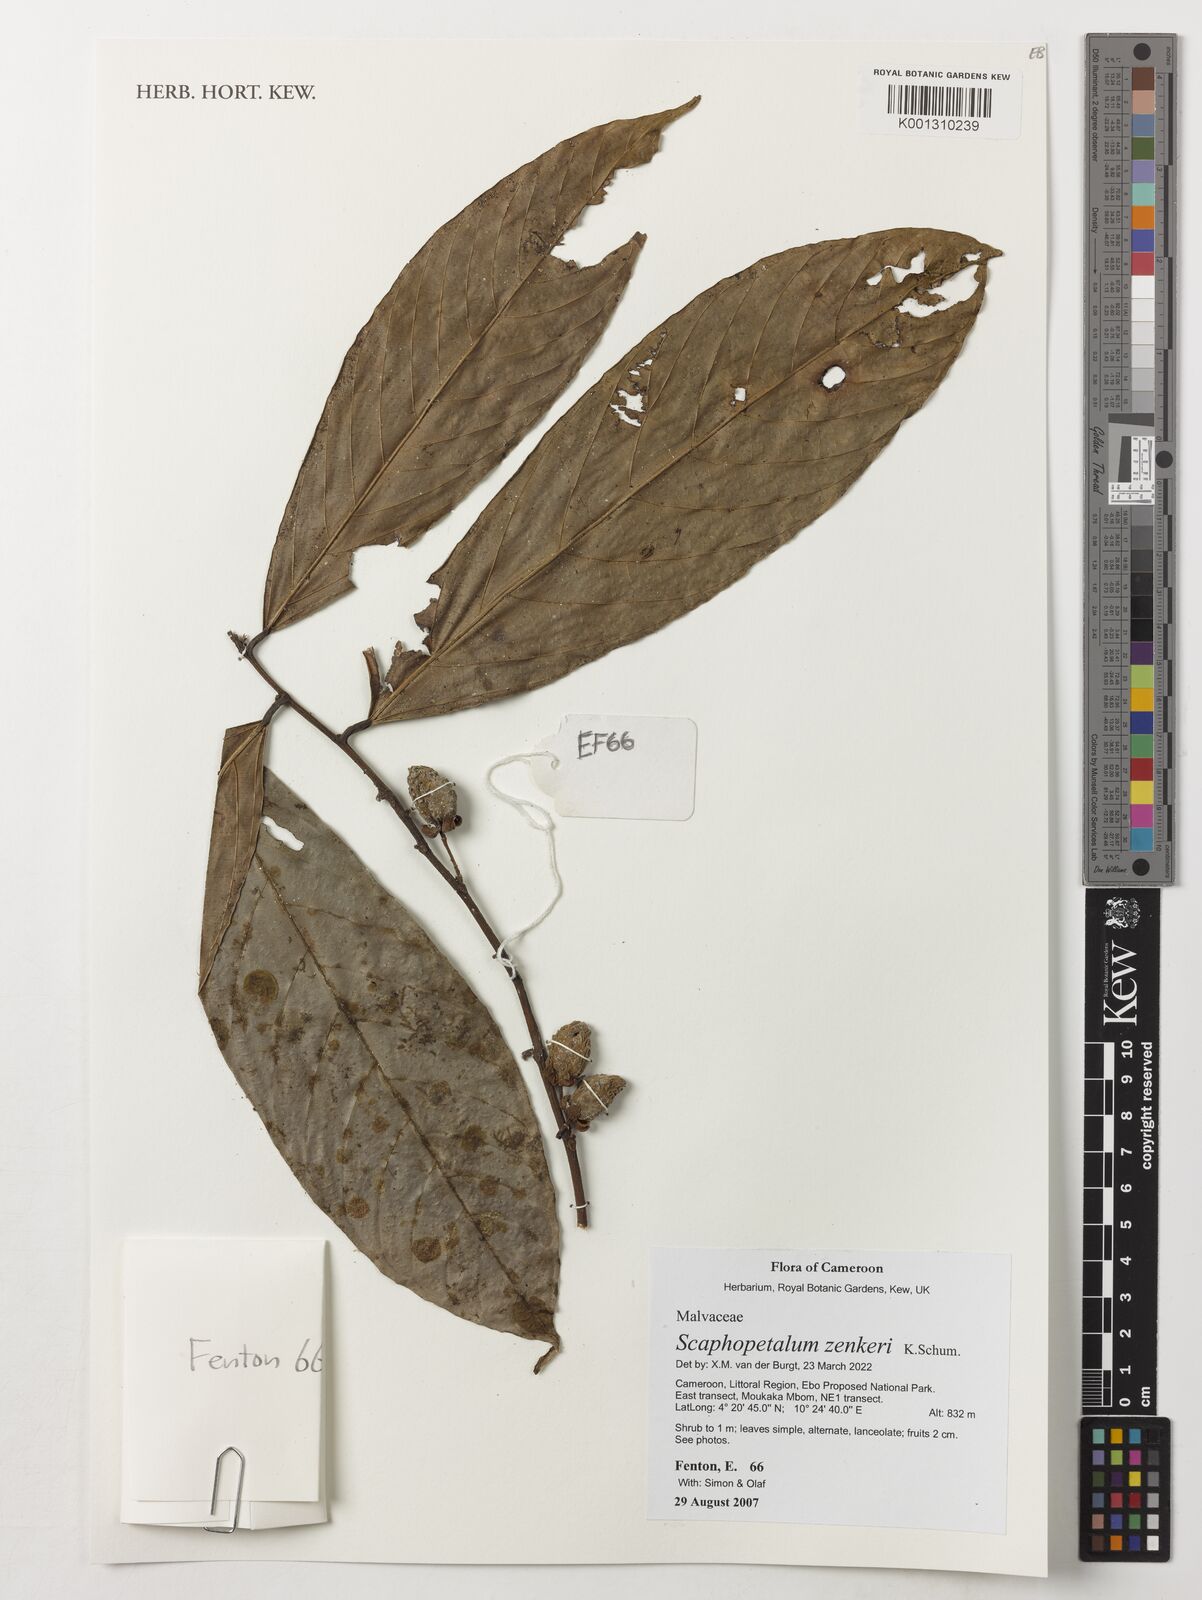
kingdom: Plantae
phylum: Tracheophyta
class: Magnoliopsida
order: Malvales
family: Malvaceae
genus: Scaphopetalum
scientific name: Scaphopetalum zenkeri
